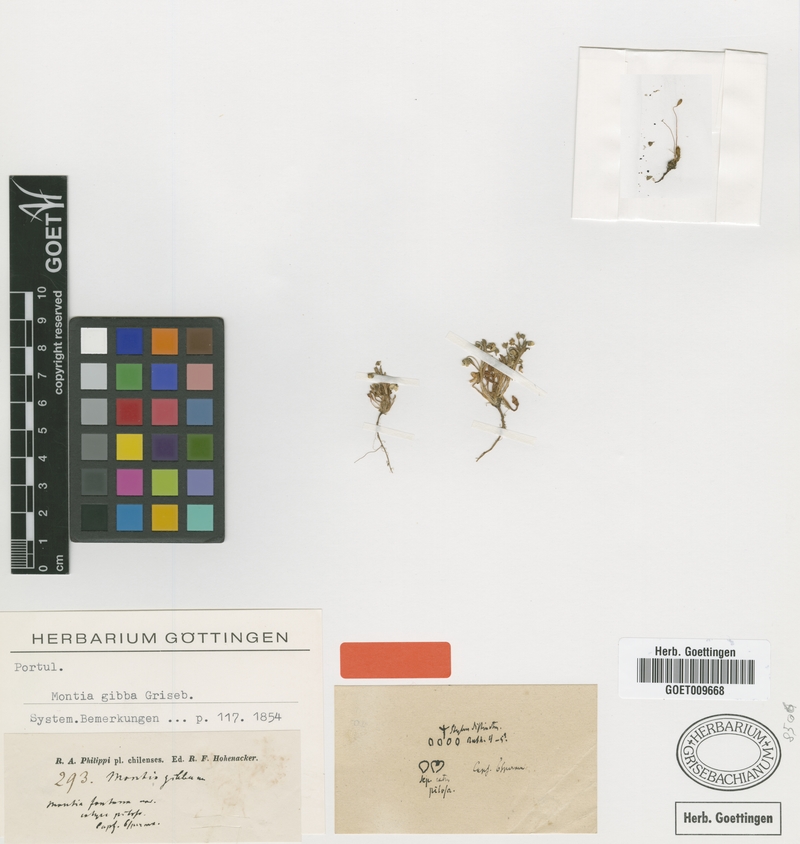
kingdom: Plantae
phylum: Tracheophyta
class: Magnoliopsida
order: Caryophyllales
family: Montiaceae
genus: Calandrinia
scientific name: Calandrinia nitida
